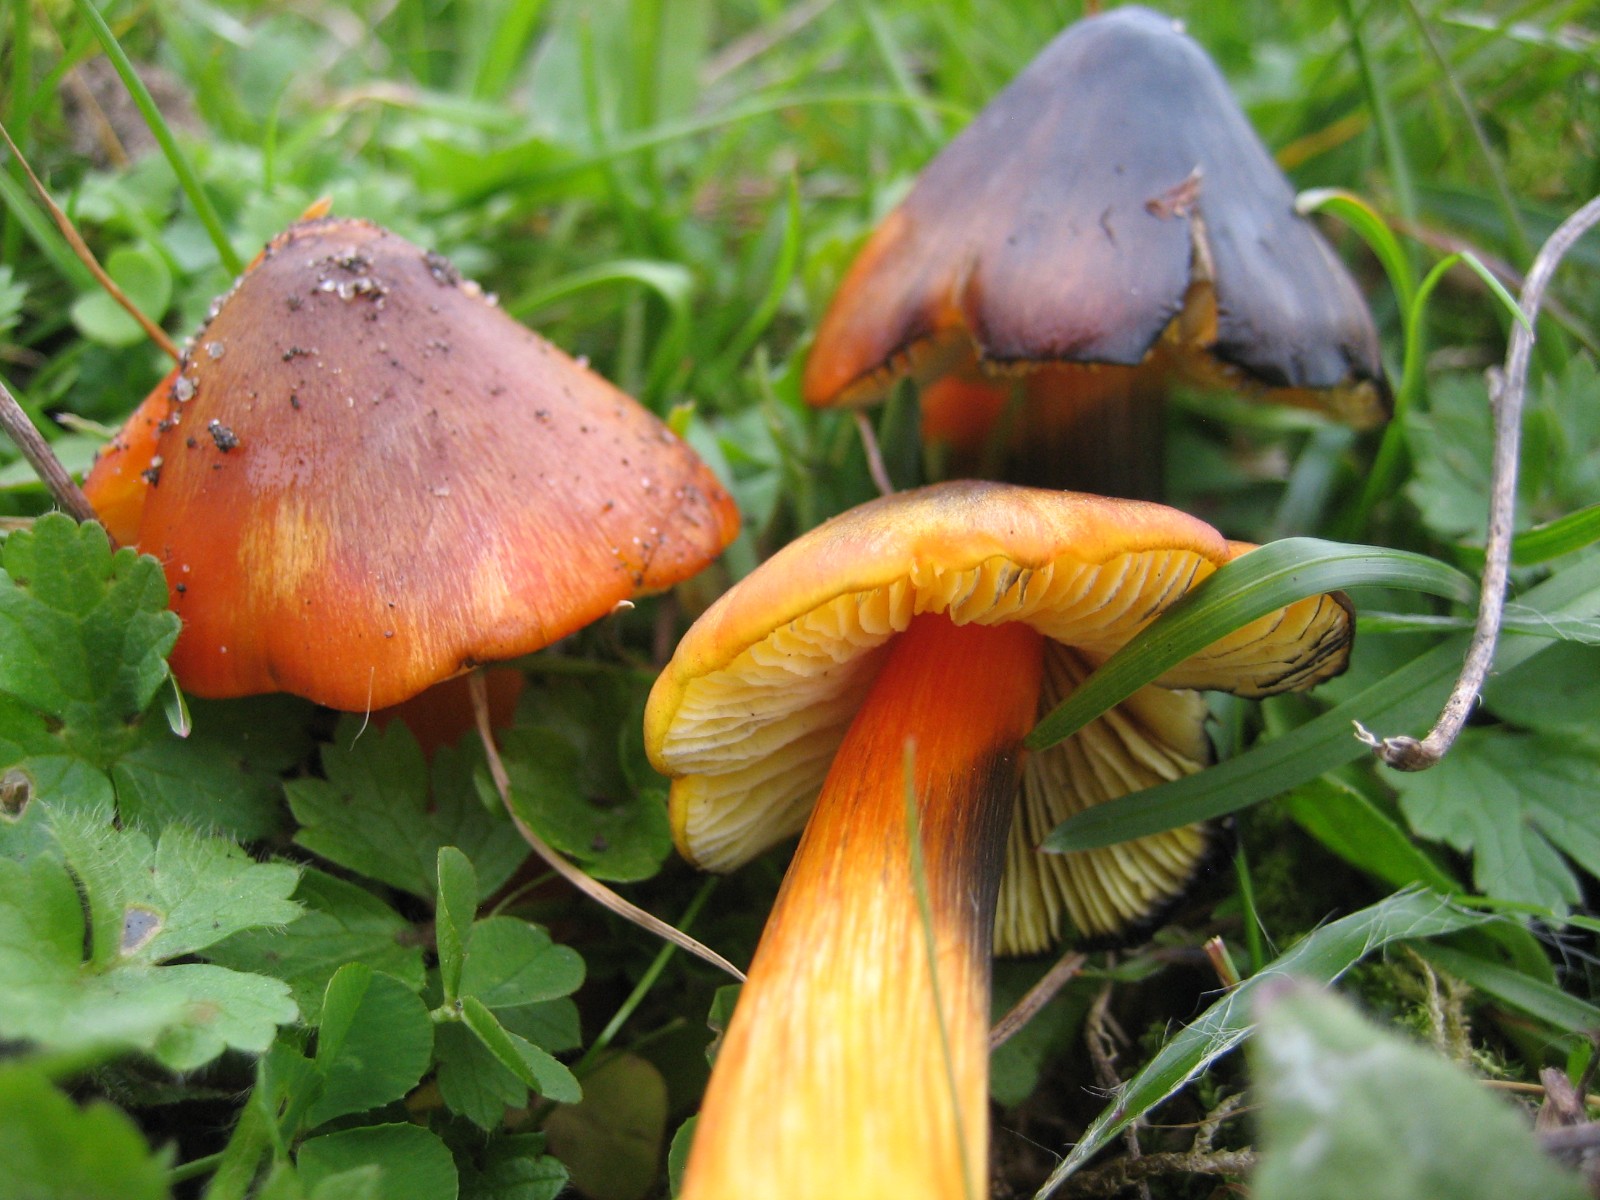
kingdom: Fungi
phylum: Basidiomycota
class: Agaricomycetes
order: Agaricales
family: Hygrophoraceae
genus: Hygrocybe
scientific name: Hygrocybe conica
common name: kegle-vokshat
